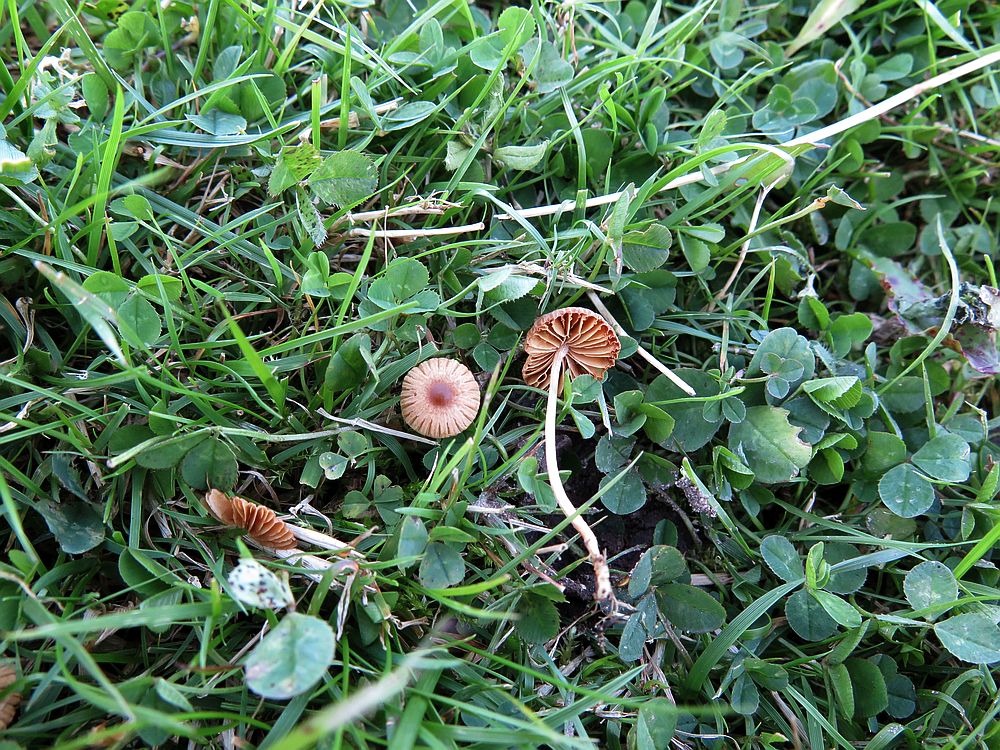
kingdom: Fungi
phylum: Basidiomycota
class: Agaricomycetes
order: Agaricales
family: Bolbitiaceae
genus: Pholiotina
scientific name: Pholiotina sulcata
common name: plisseret dansehat
